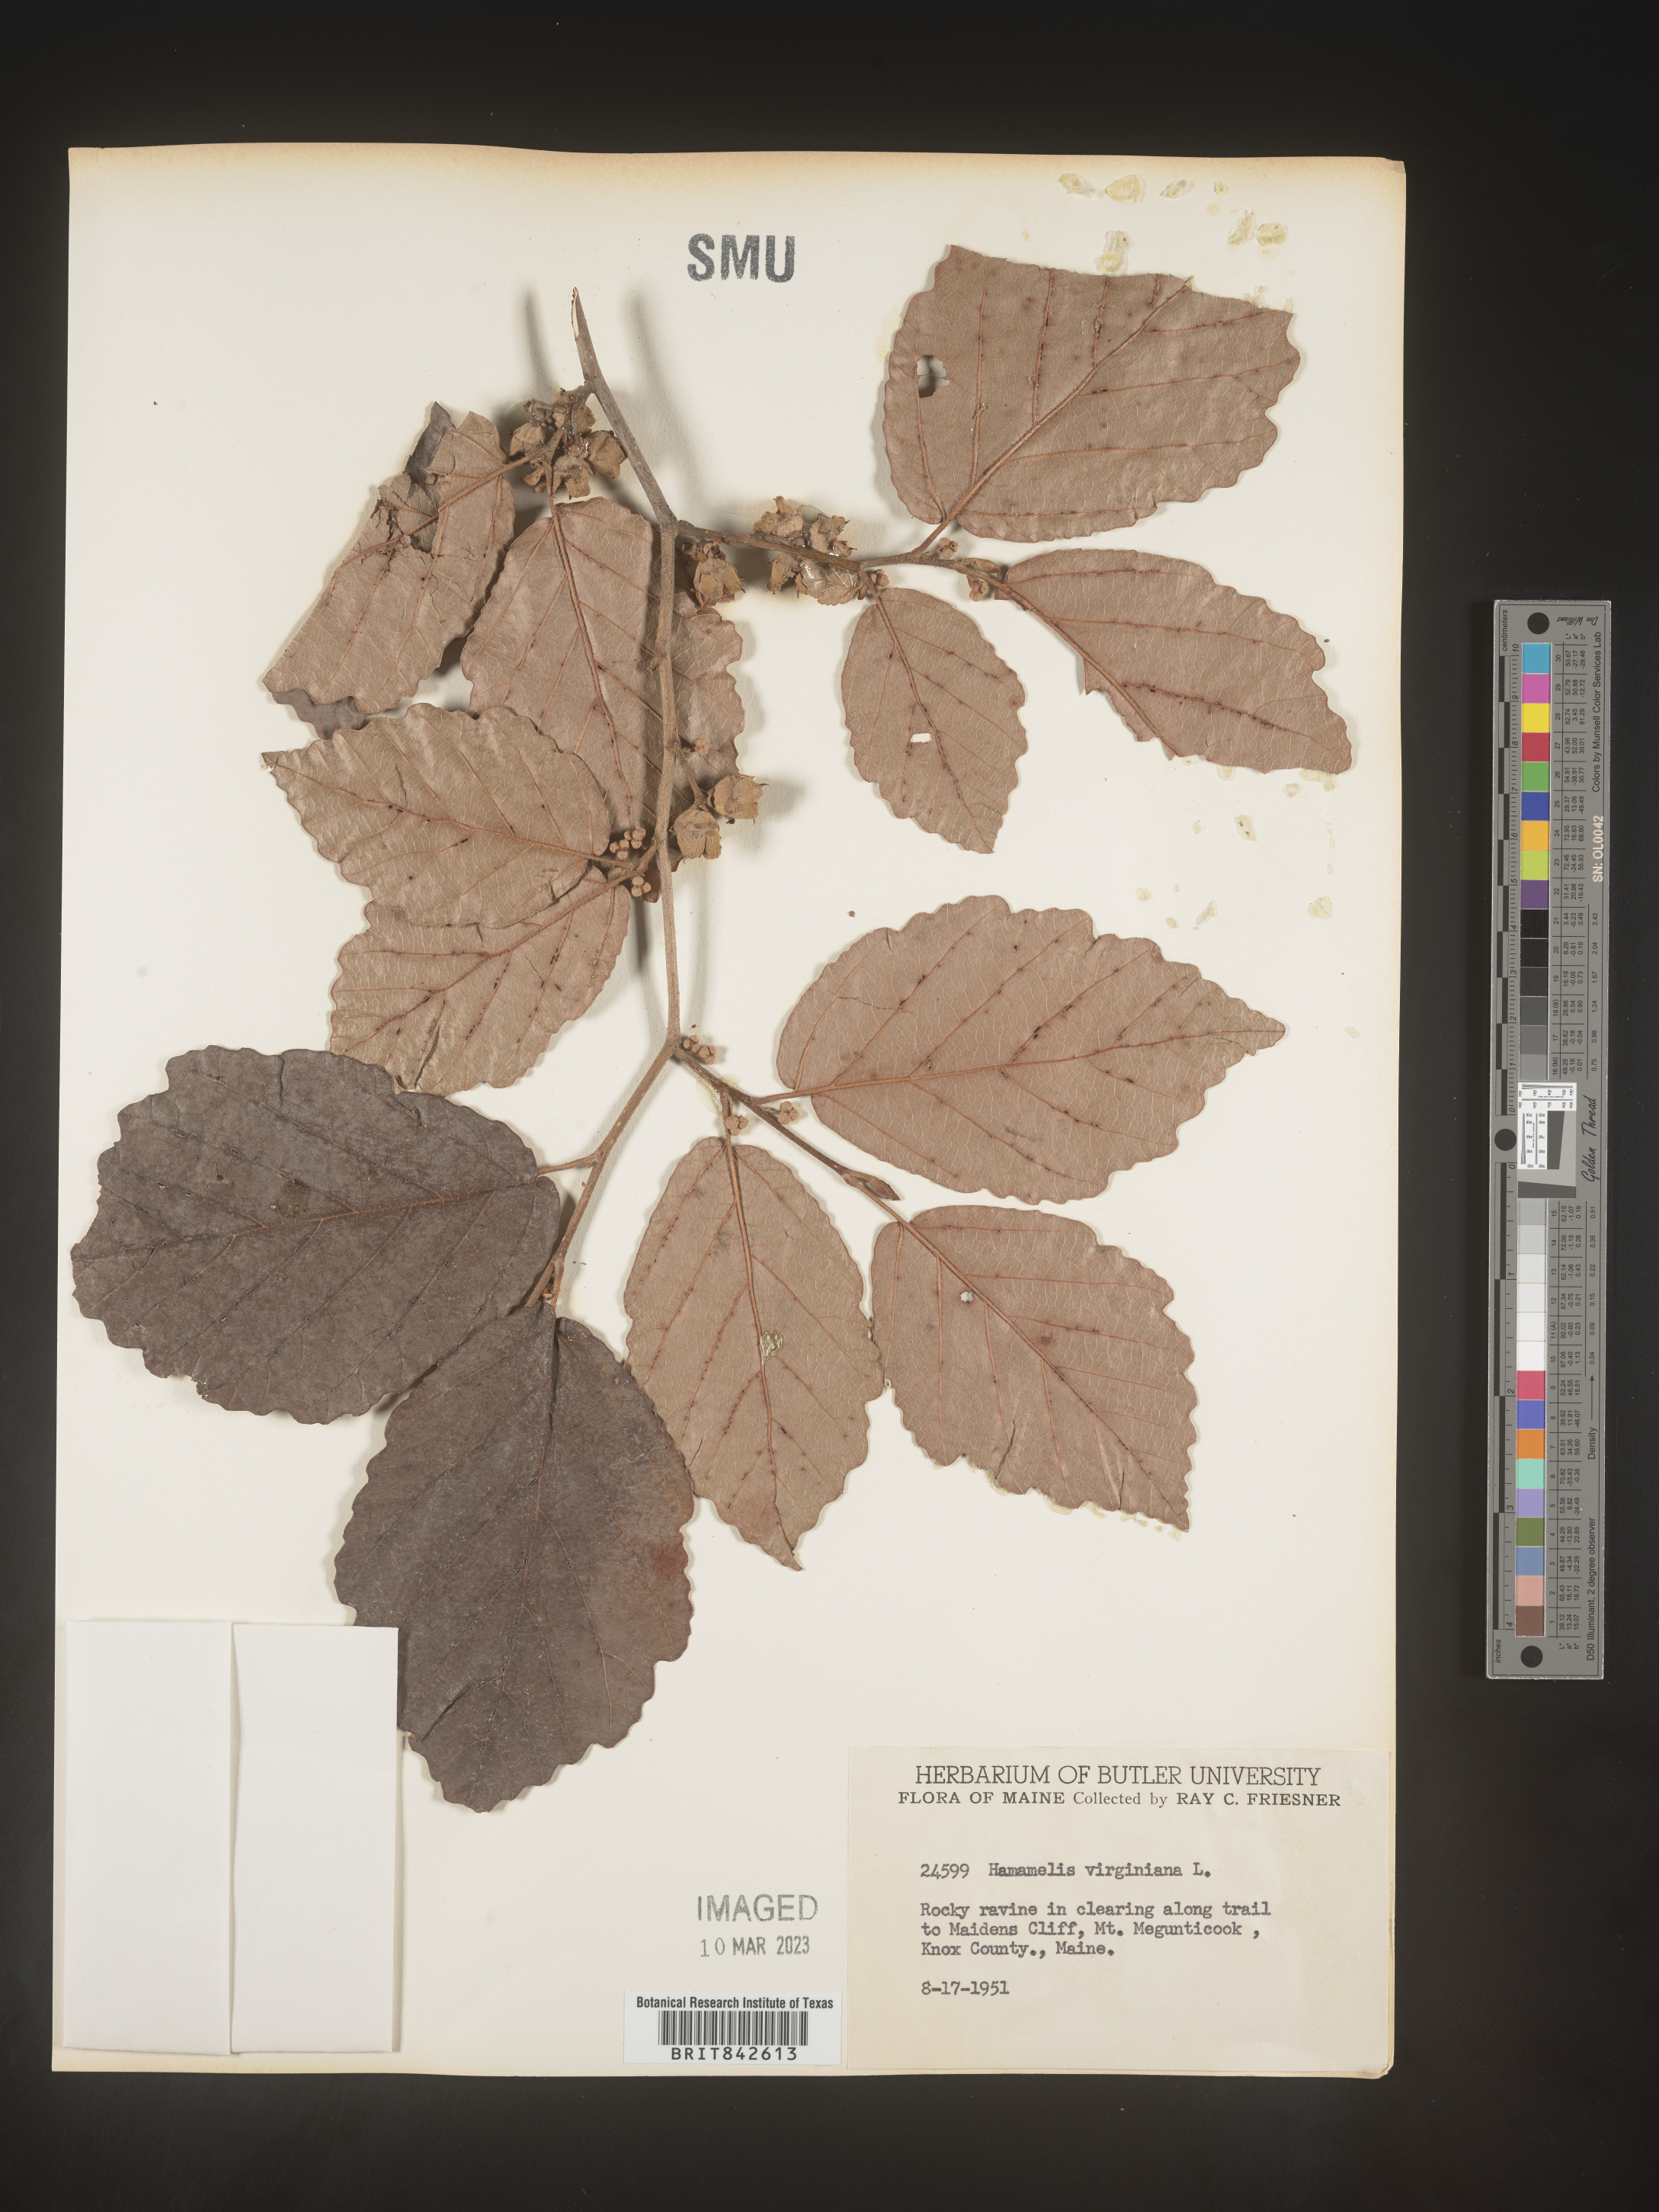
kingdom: Plantae
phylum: Tracheophyta
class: Magnoliopsida
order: Saxifragales
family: Hamamelidaceae
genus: Hamamelis
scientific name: Hamamelis
